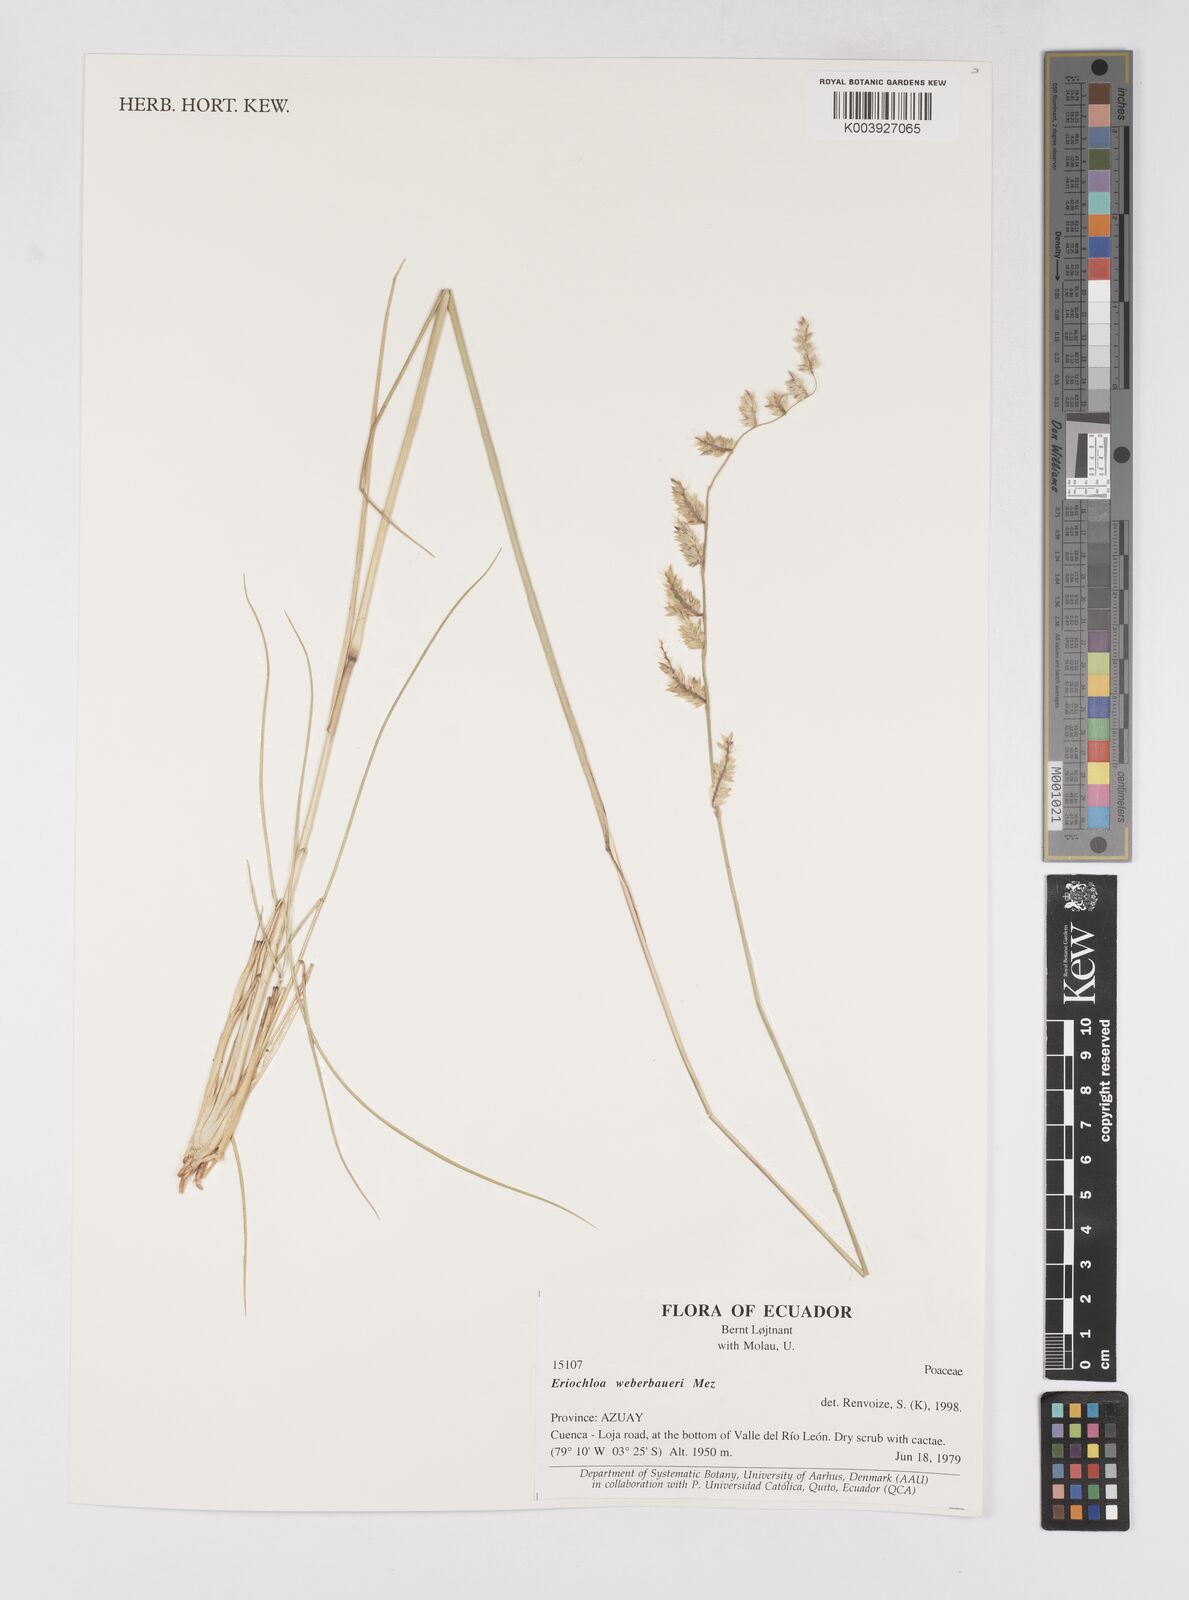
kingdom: Plantae
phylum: Tracheophyta
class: Liliopsida
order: Poales
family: Poaceae
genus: Eriochloa
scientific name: Eriochloa weberbaueri
